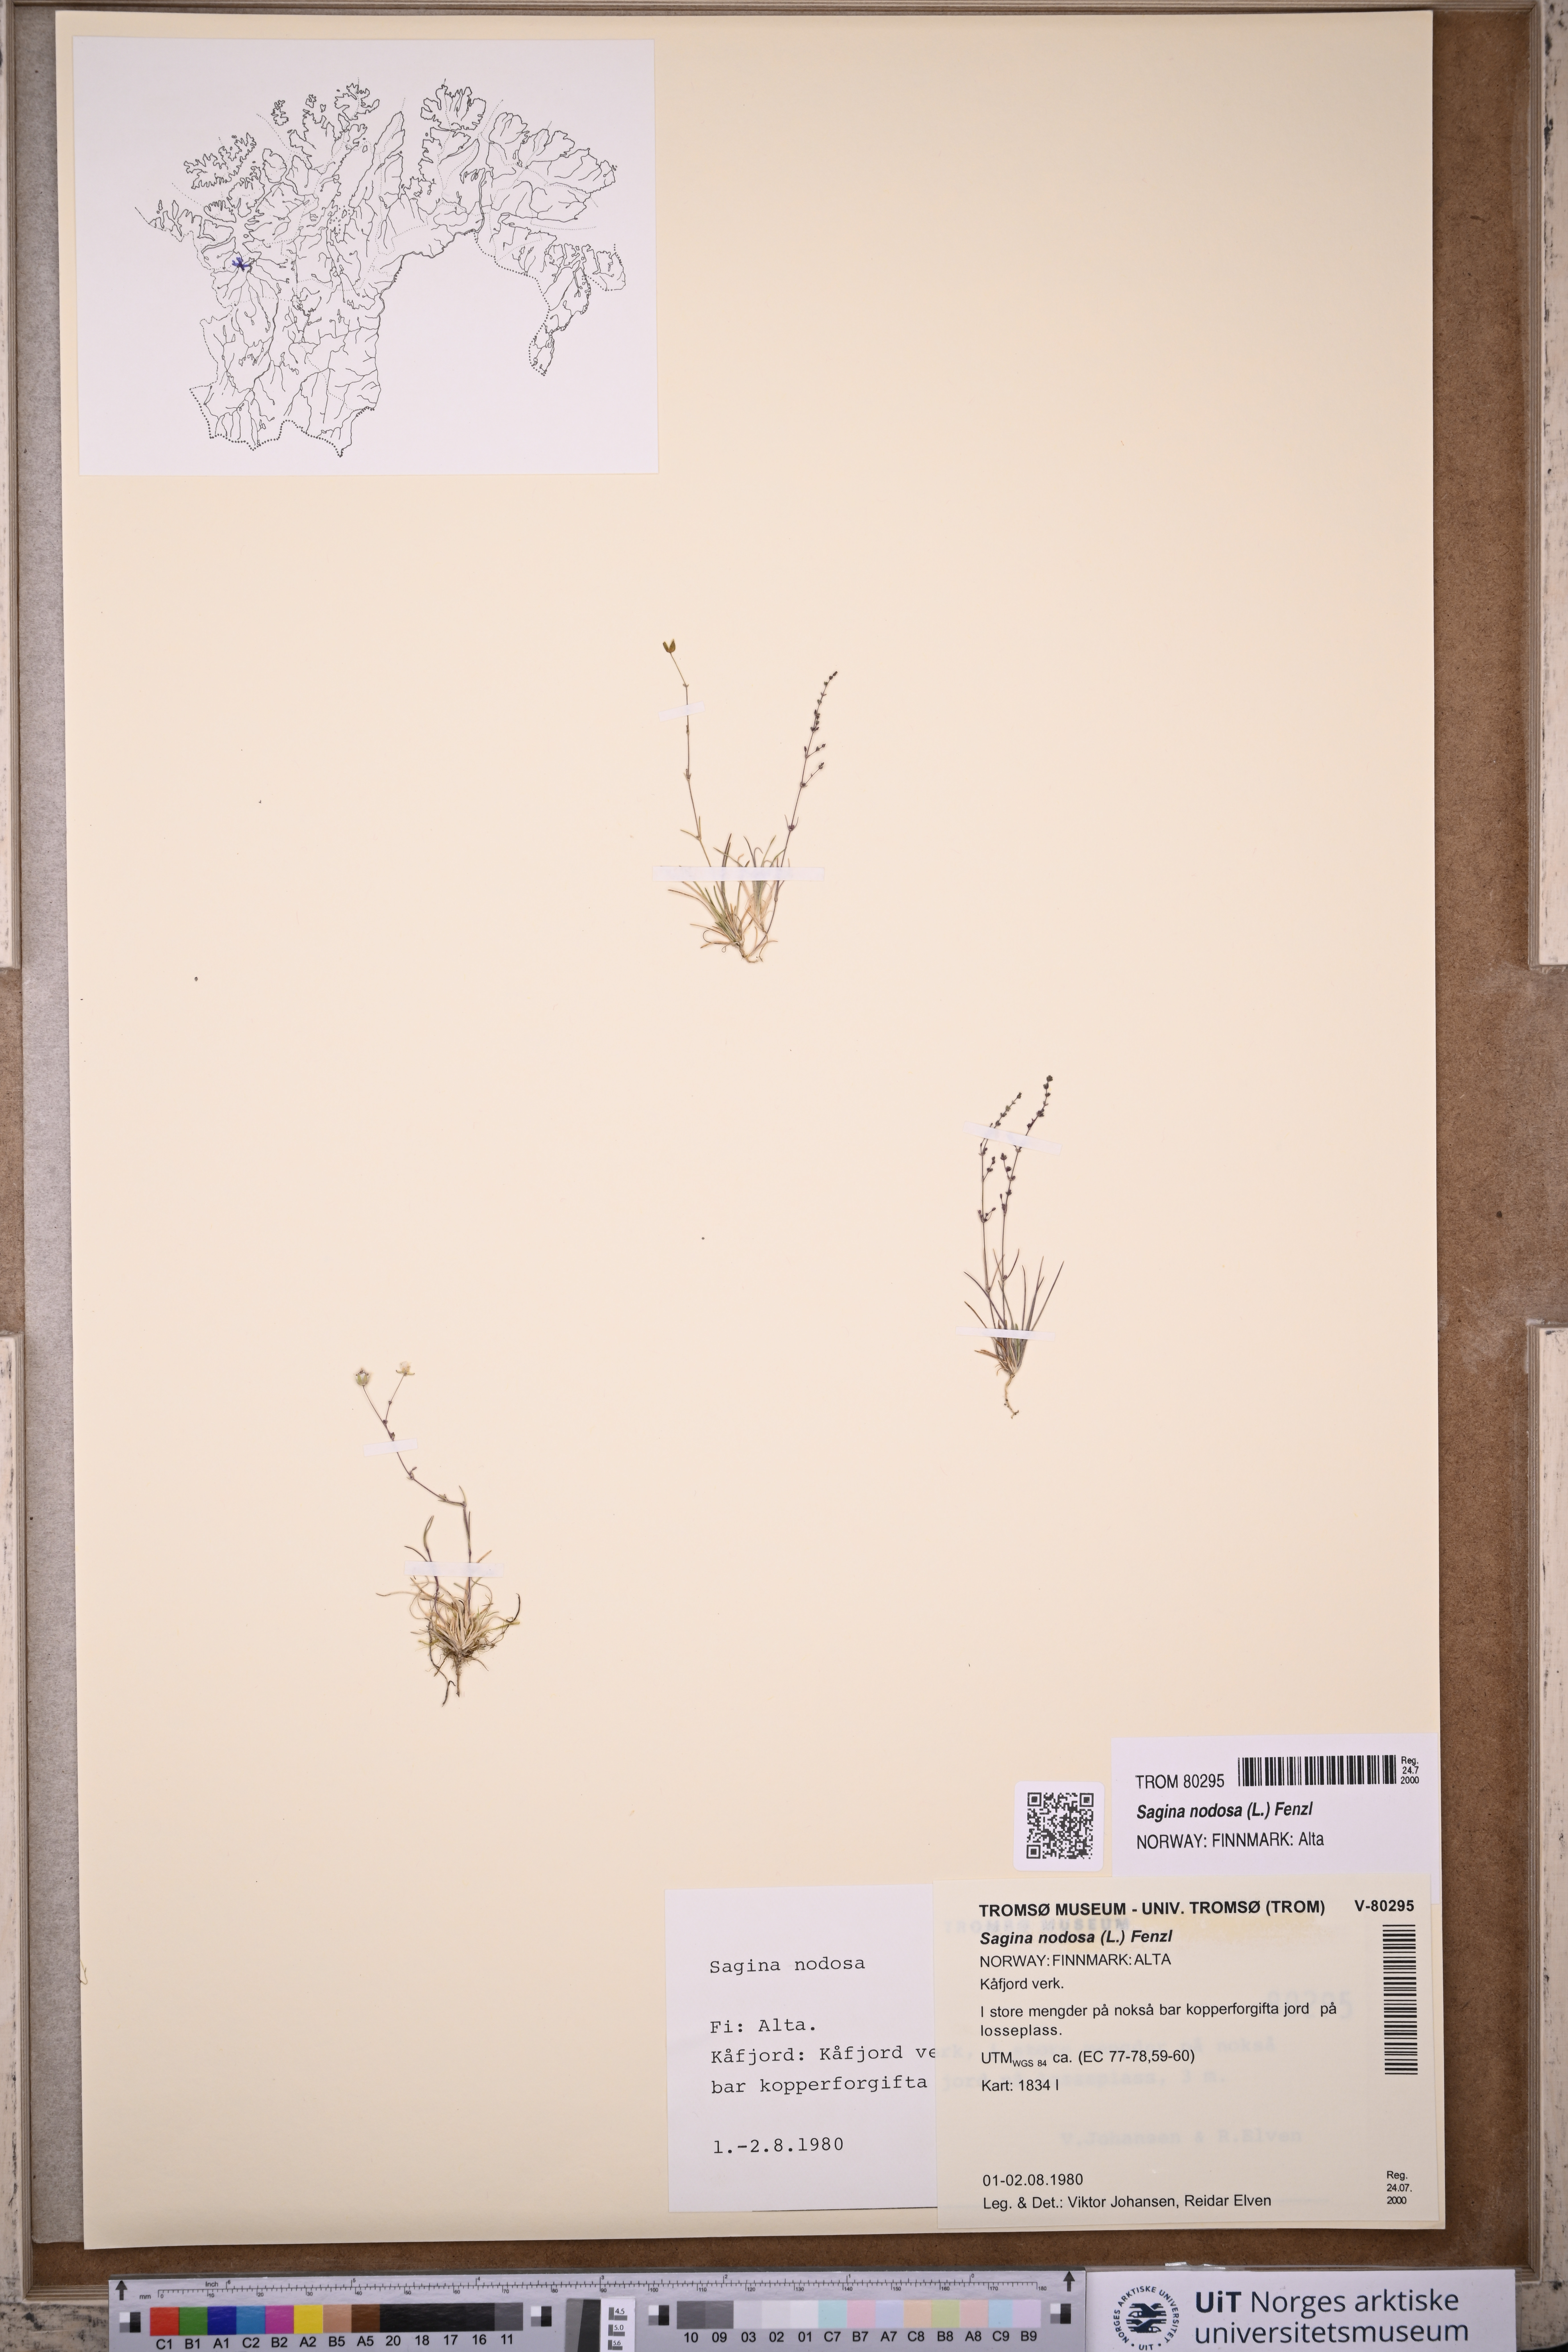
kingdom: Plantae
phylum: Tracheophyta
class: Magnoliopsida
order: Caryophyllales
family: Caryophyllaceae
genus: Sagina
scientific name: Sagina nodosa
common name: Knotted pearlwort
